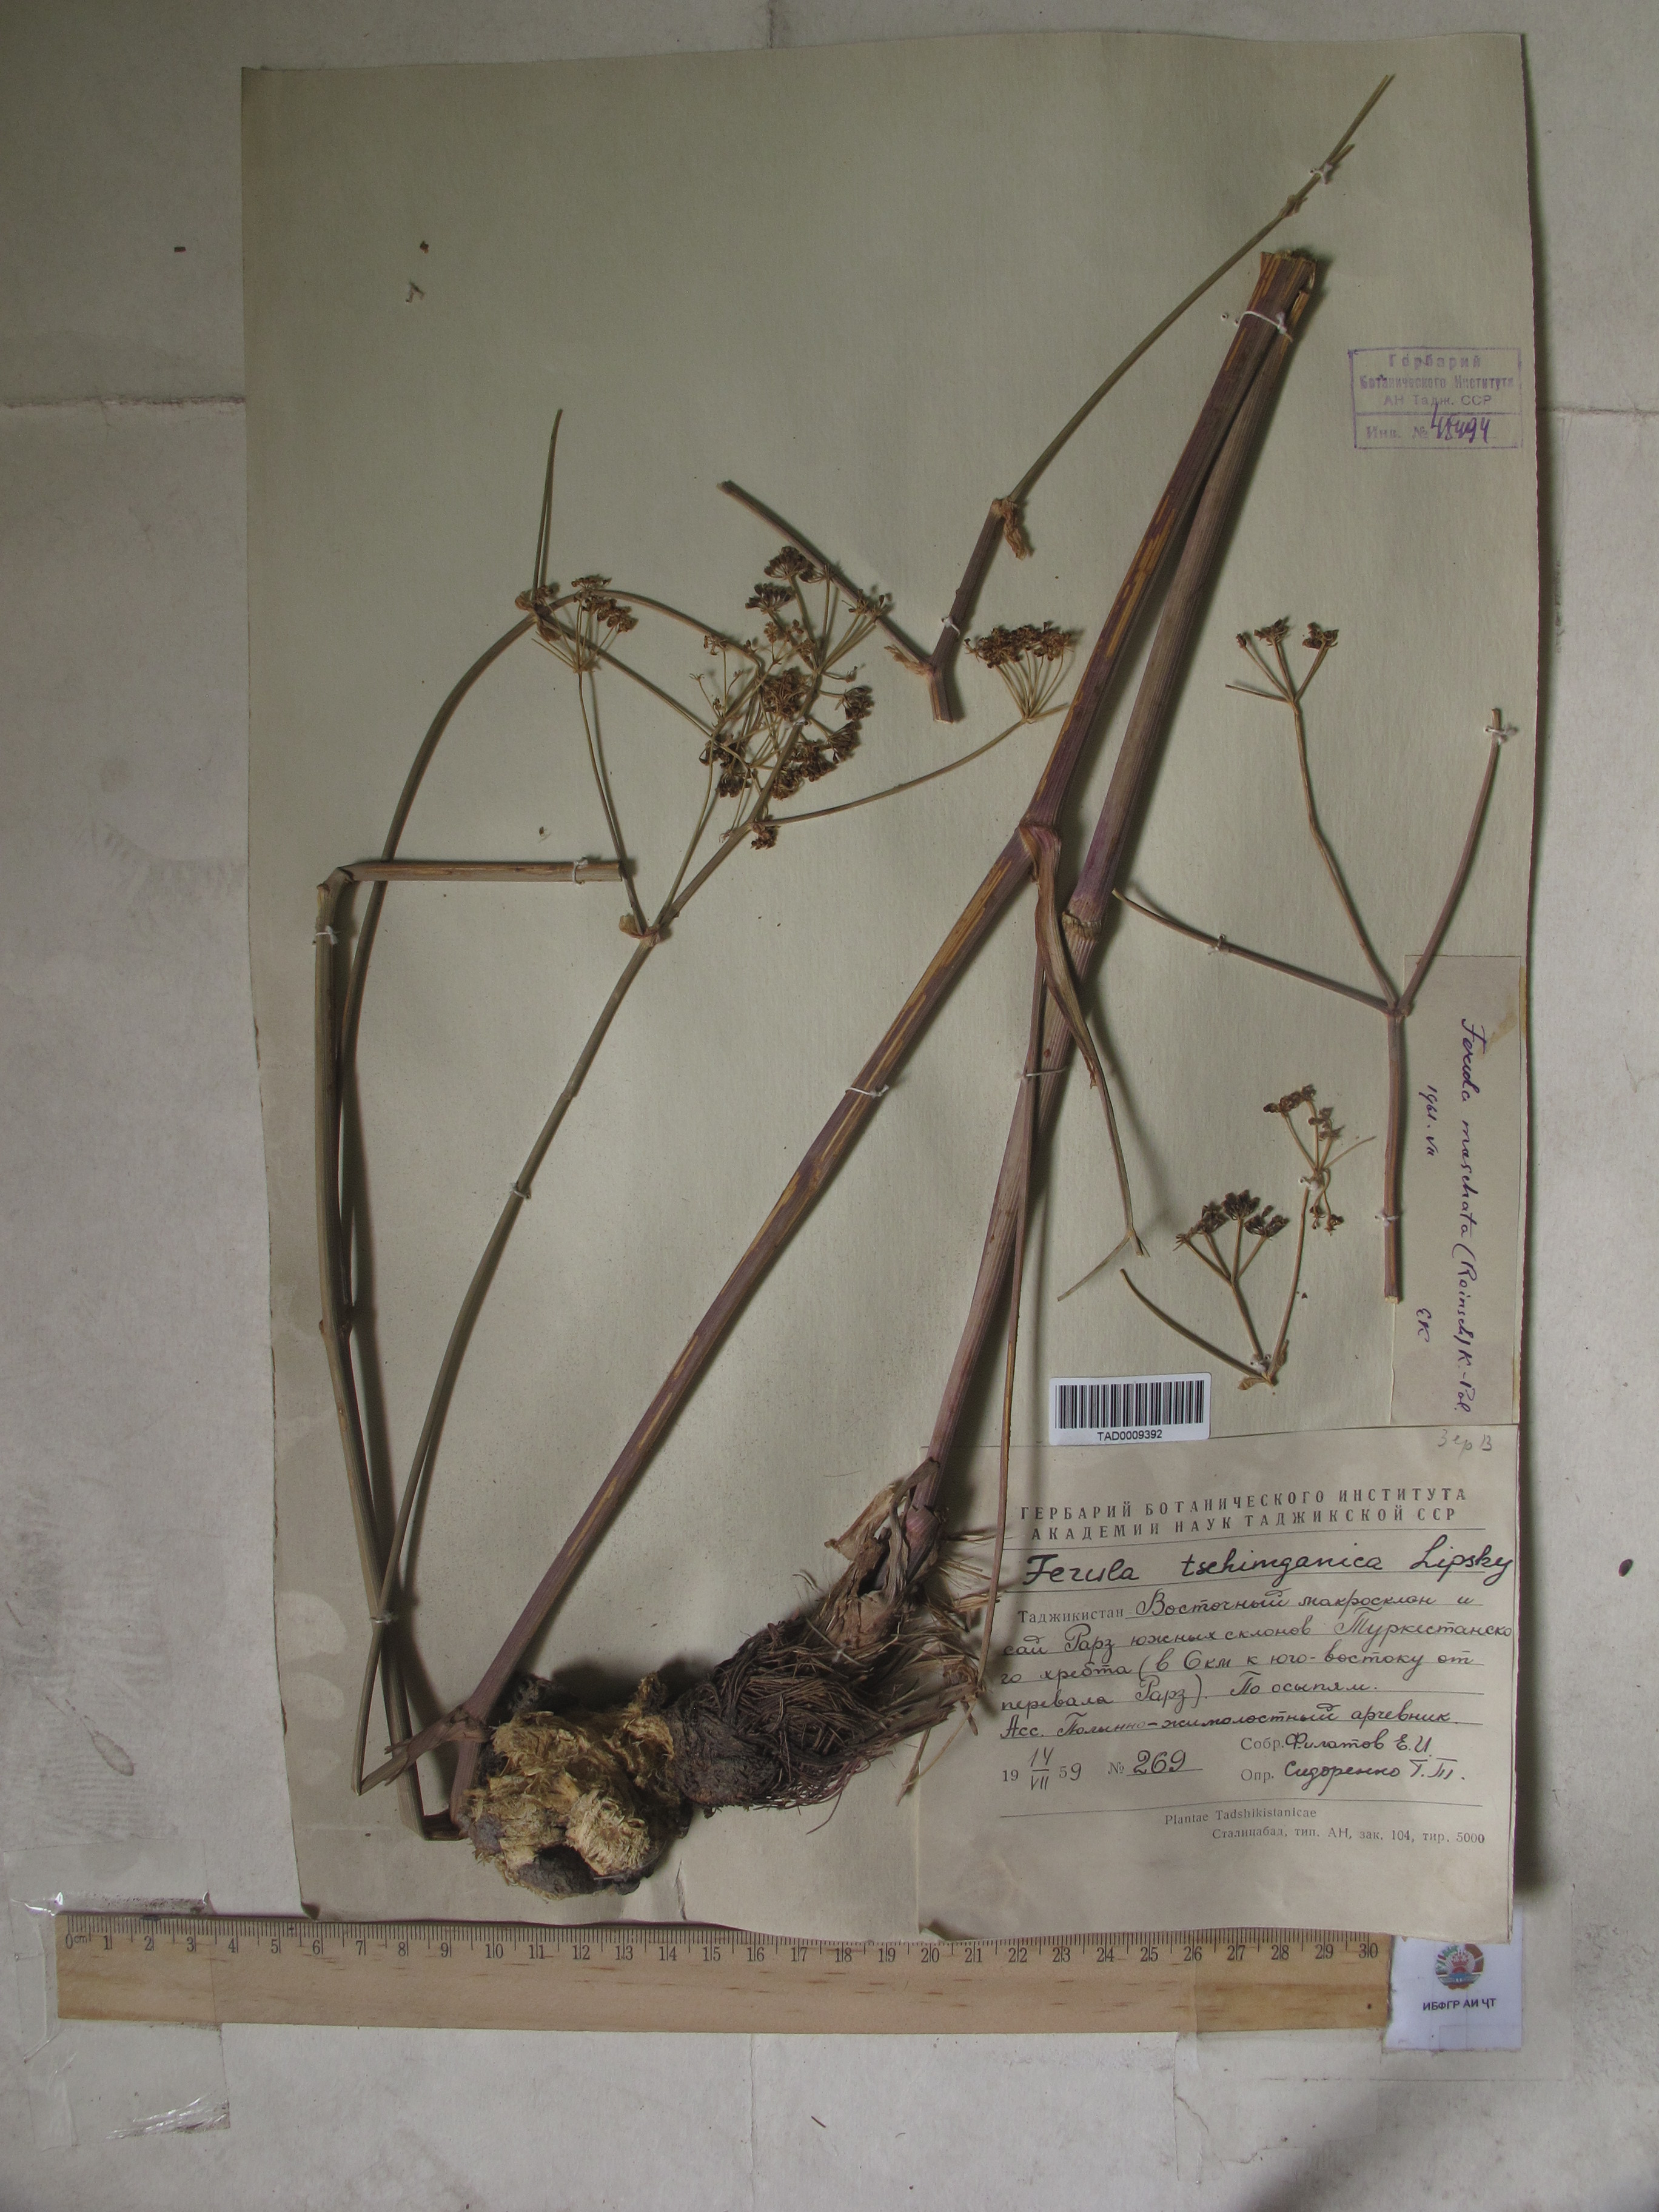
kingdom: Plantae
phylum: Tracheophyta
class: Magnoliopsida
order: Apiales
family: Apiaceae
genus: Ferula
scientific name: Ferula tschimganica
